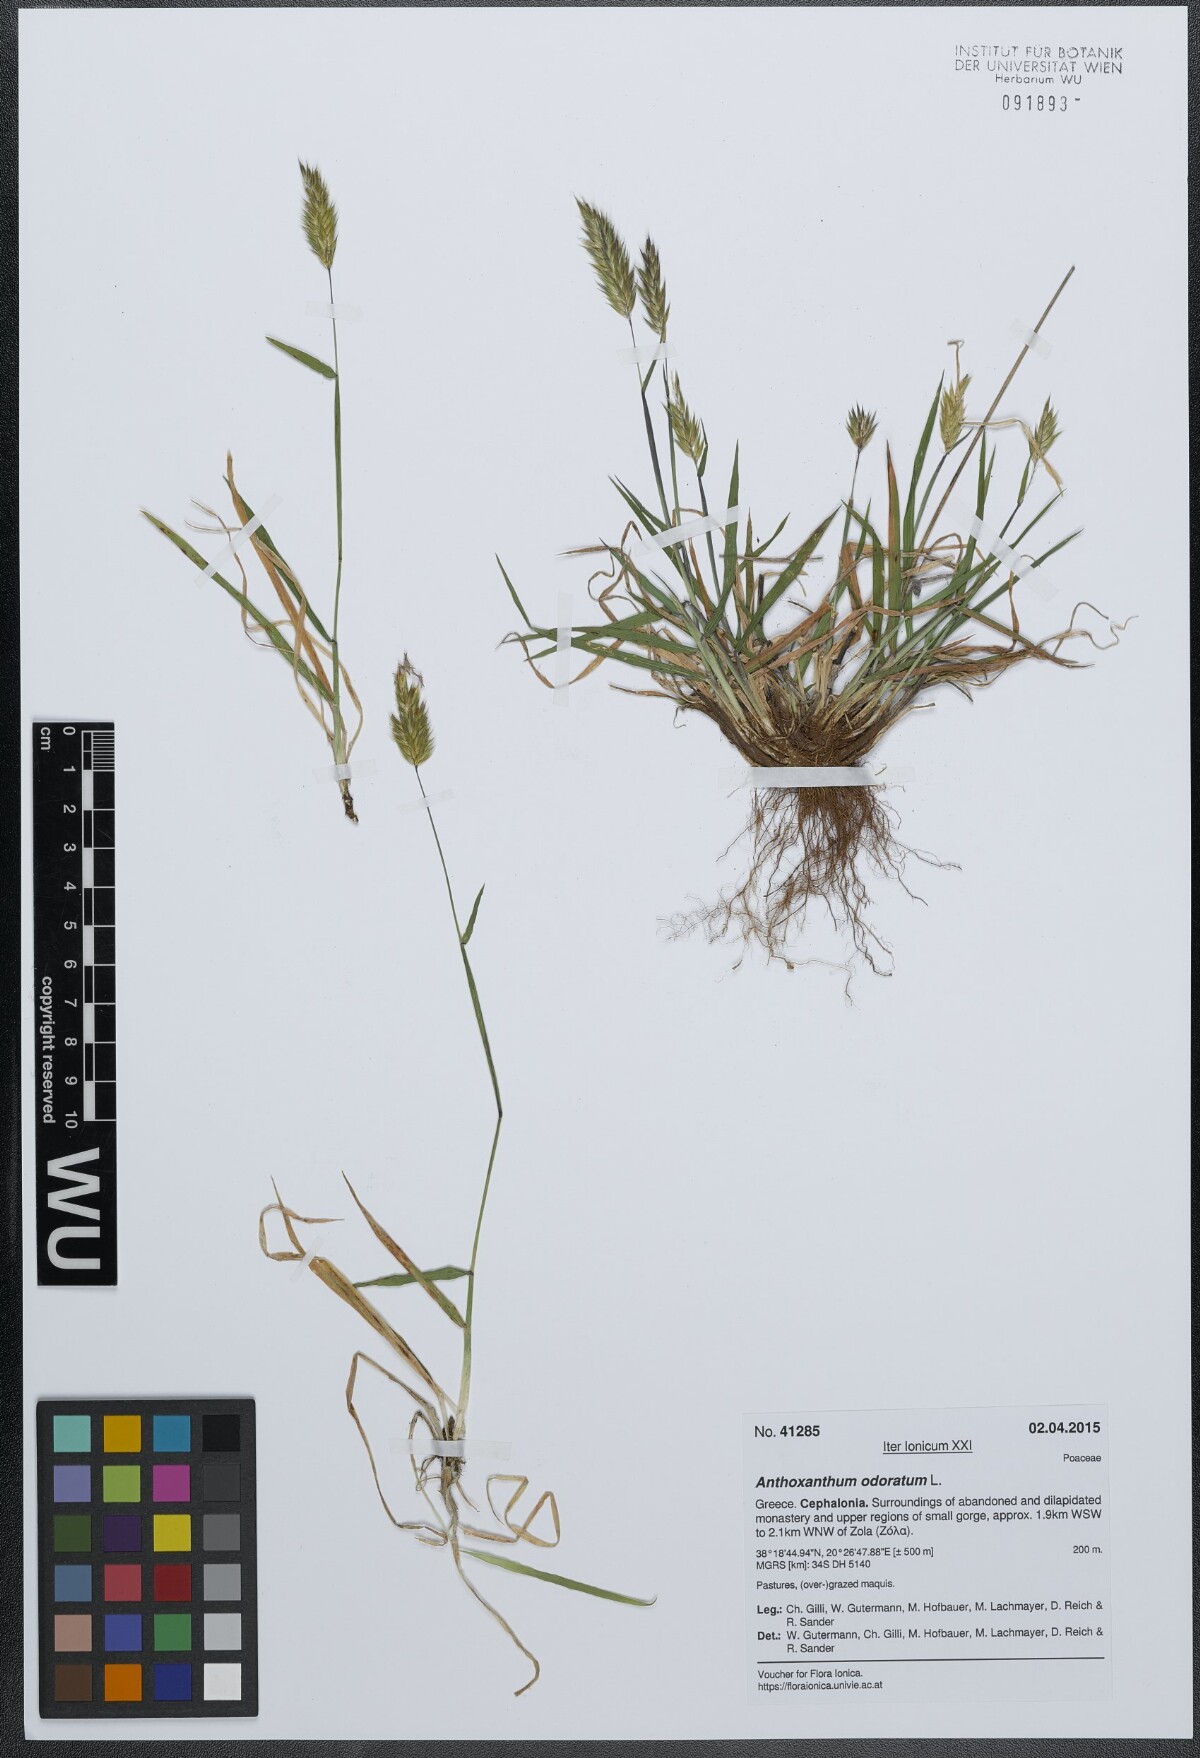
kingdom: Plantae
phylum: Tracheophyta
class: Liliopsida
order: Poales
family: Poaceae
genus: Anthoxanthum
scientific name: Anthoxanthum odoratum
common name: Sweet vernalgrass
